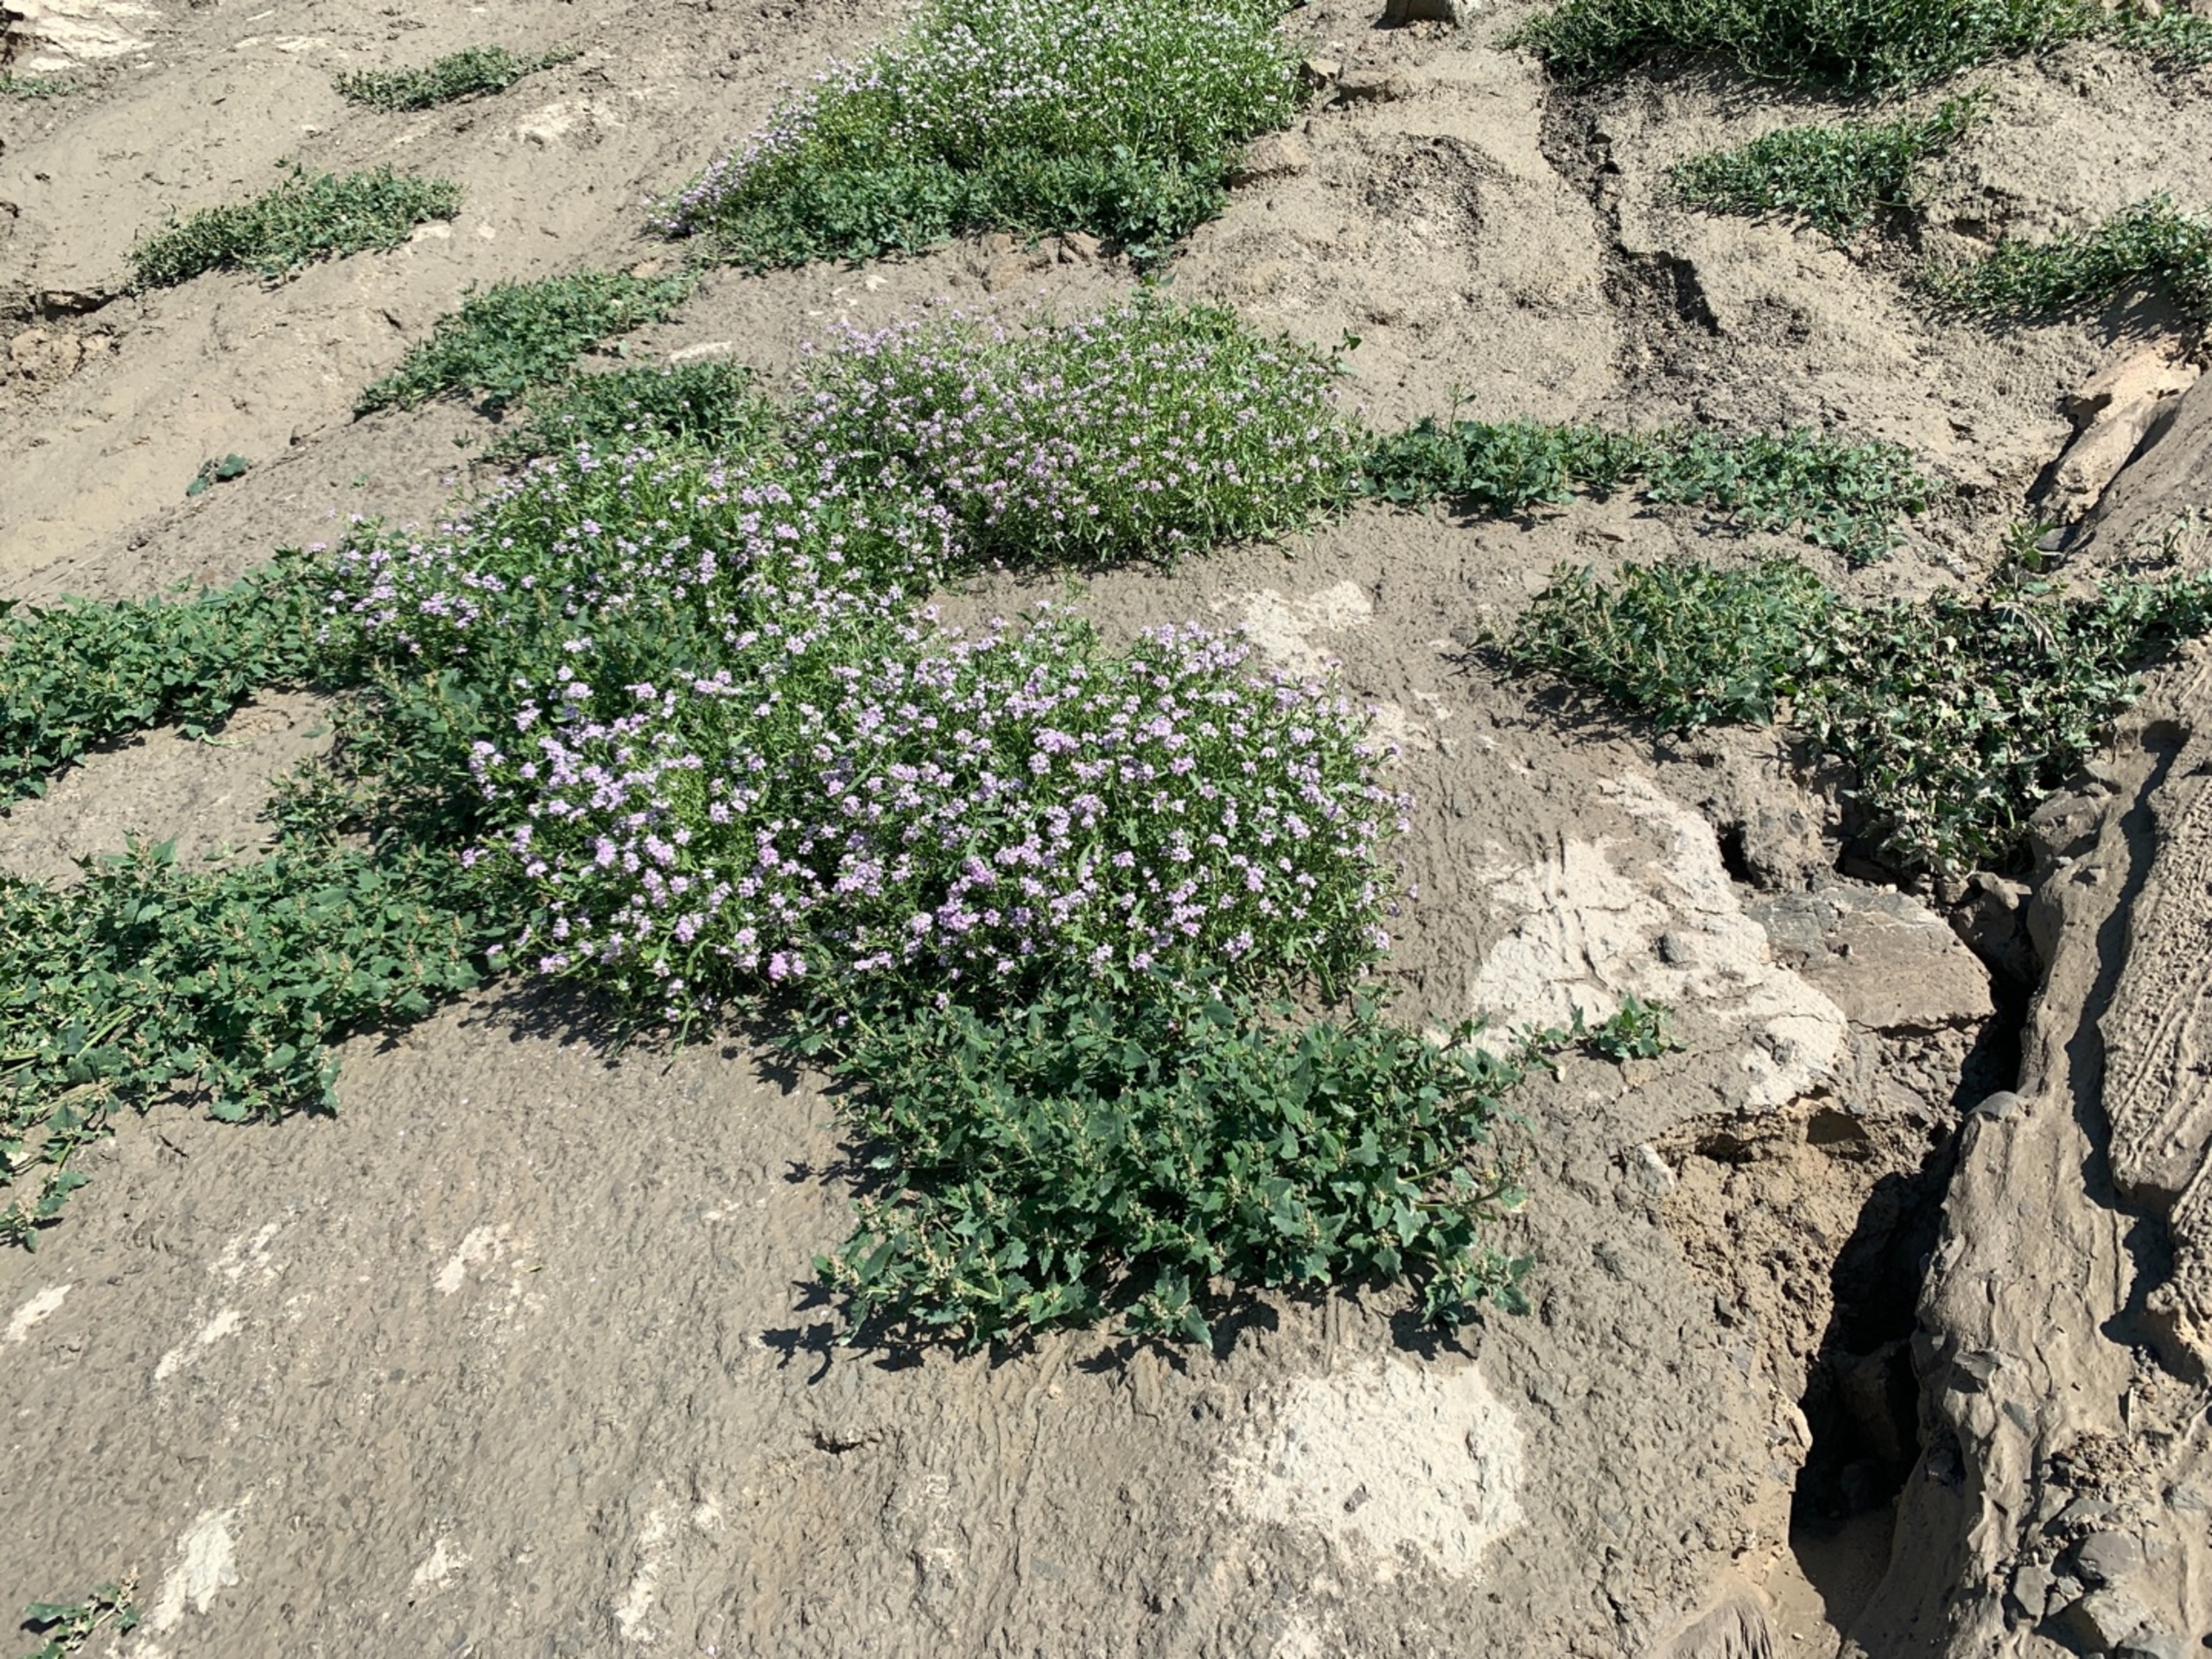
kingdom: Plantae
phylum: Tracheophyta
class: Magnoliopsida
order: Brassicales
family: Brassicaceae
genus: Cakile
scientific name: Cakile maritima
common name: Strandsennep
